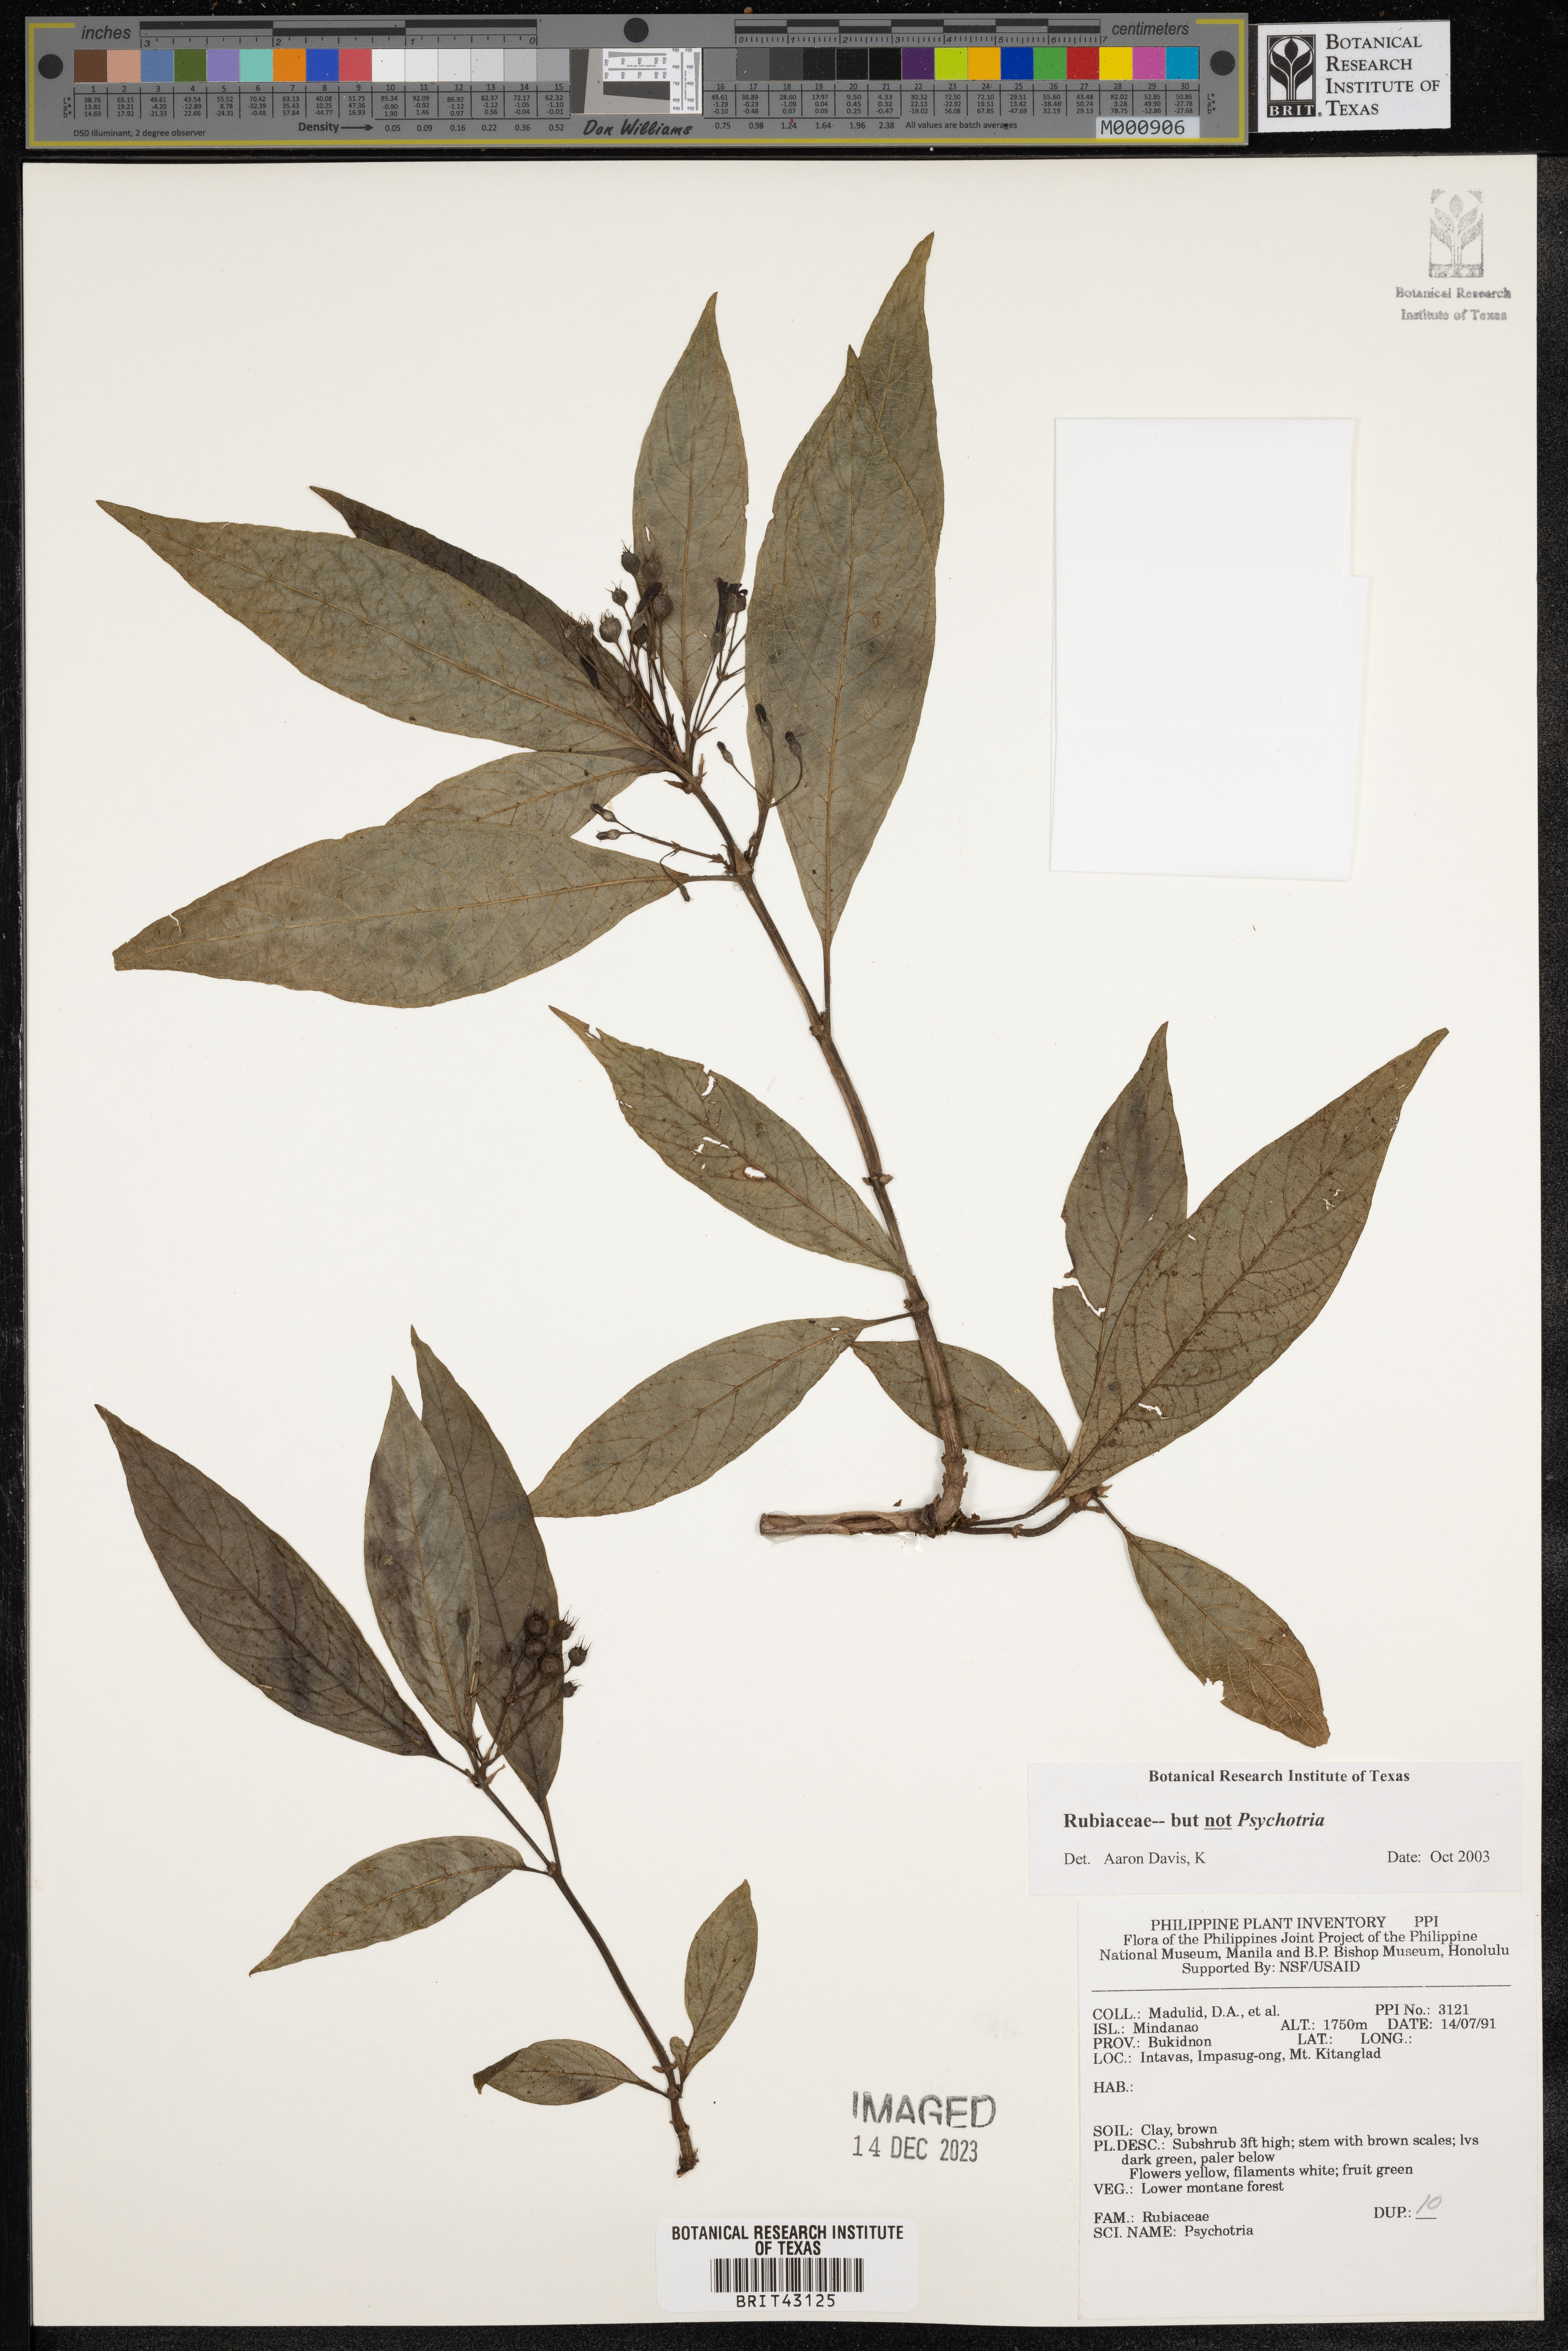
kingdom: Plantae
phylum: Tracheophyta
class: Magnoliopsida
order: Gentianales
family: Rubiaceae
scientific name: Rubiaceae
